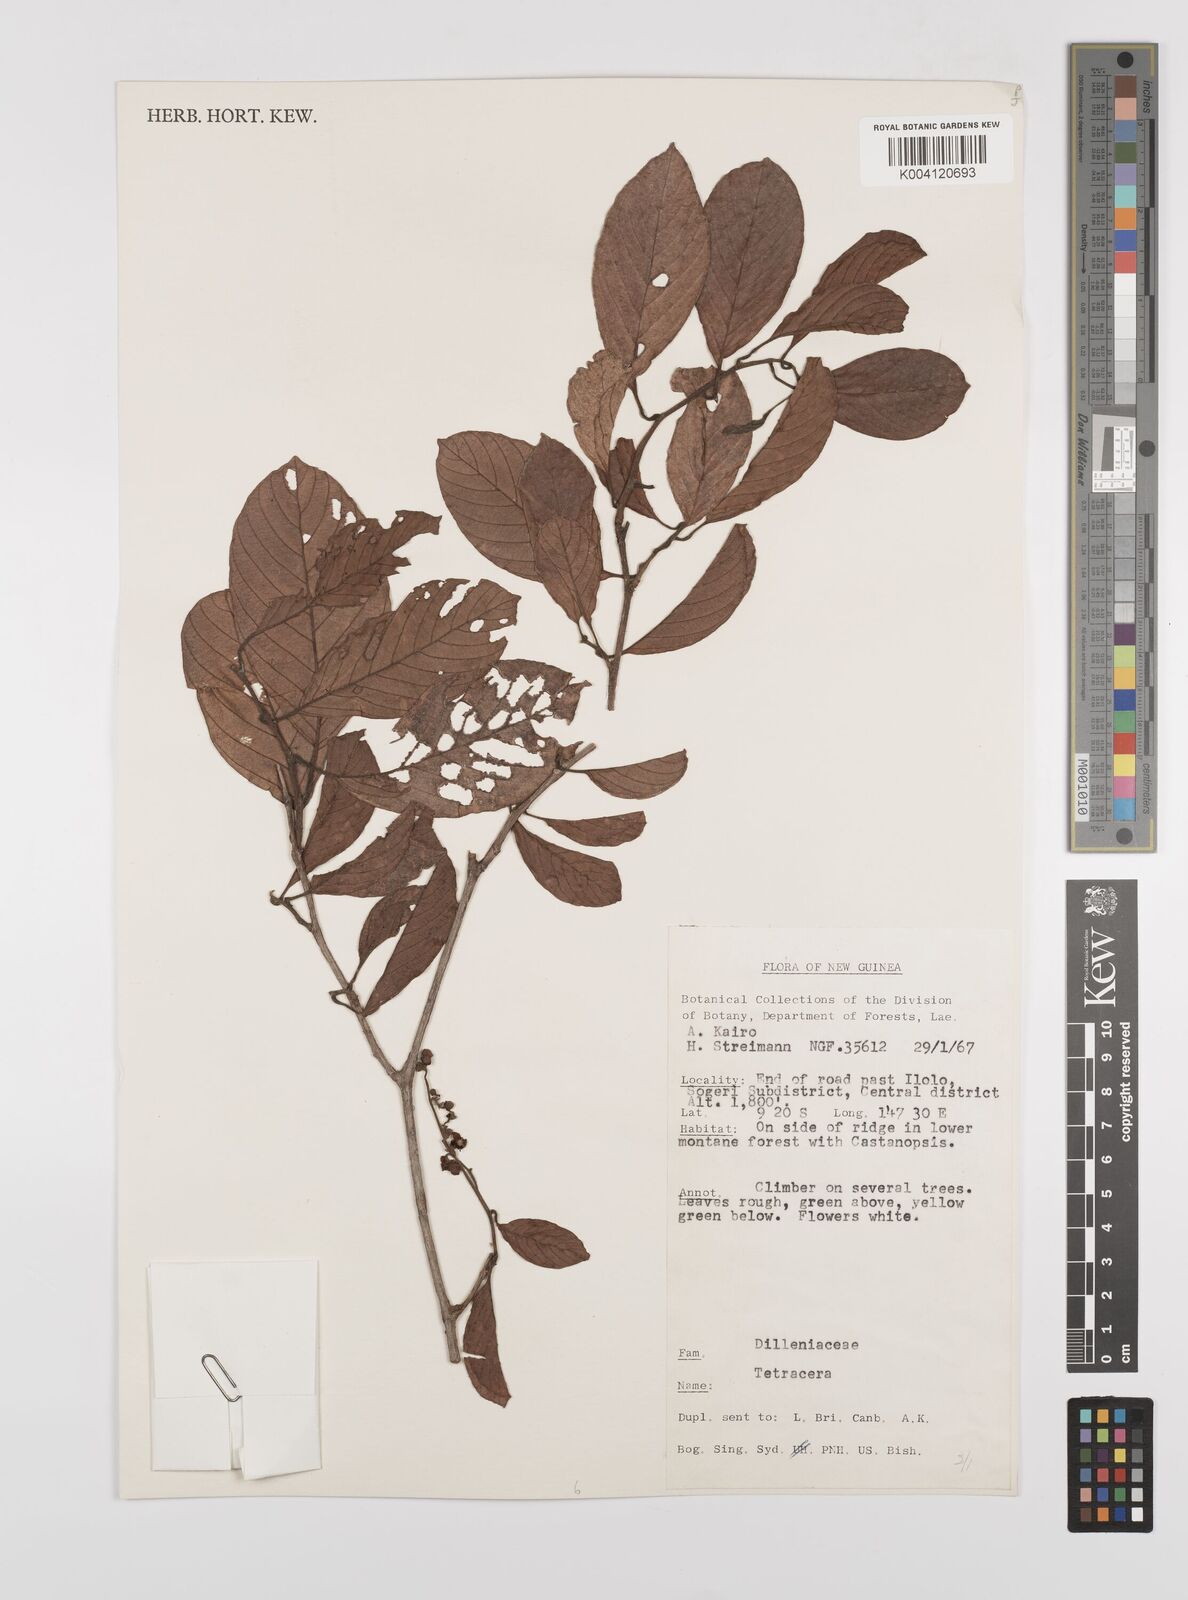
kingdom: Plantae
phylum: Tracheophyta
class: Magnoliopsida
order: Dilleniales
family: Dilleniaceae
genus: Tetracera
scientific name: Tetracera nordtiana
